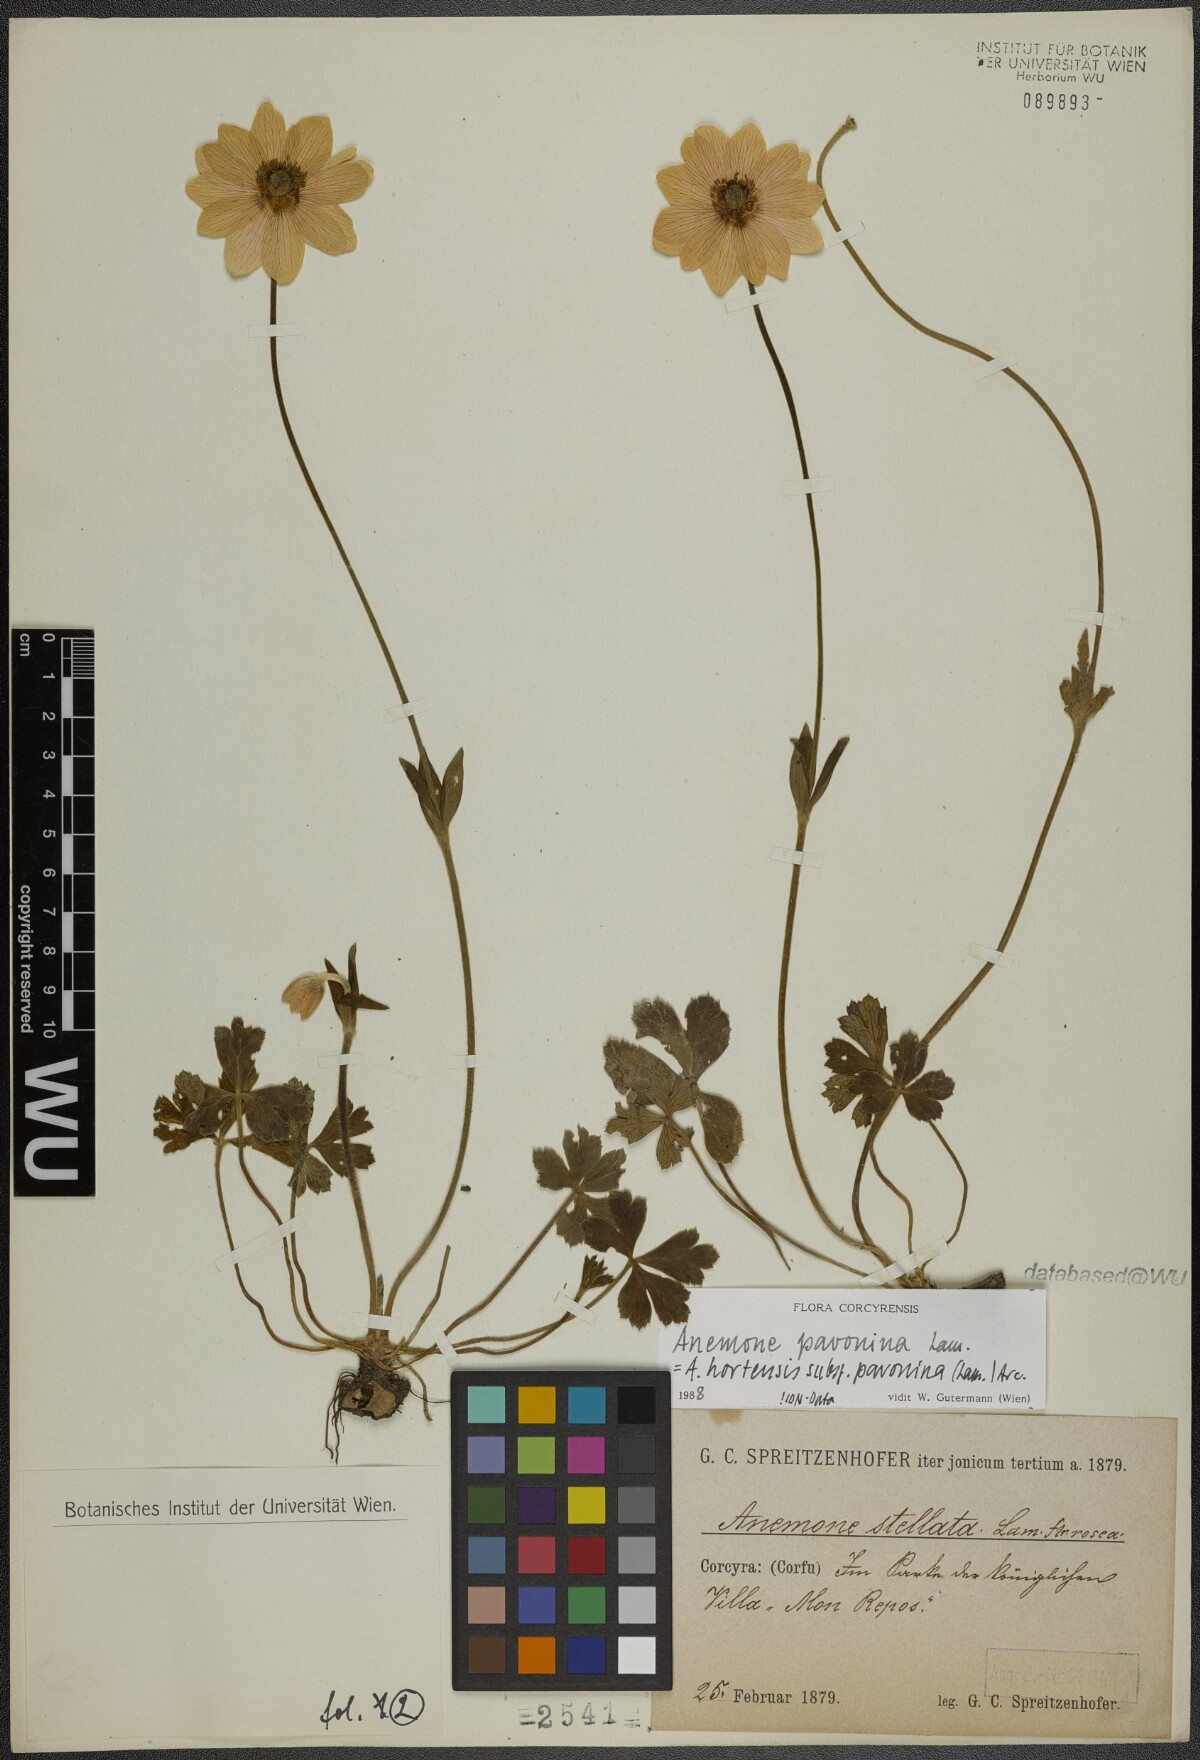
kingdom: Plantae
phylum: Tracheophyta
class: Magnoliopsida
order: Ranunculales
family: Ranunculaceae
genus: Anemone
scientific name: Anemone pavonina
